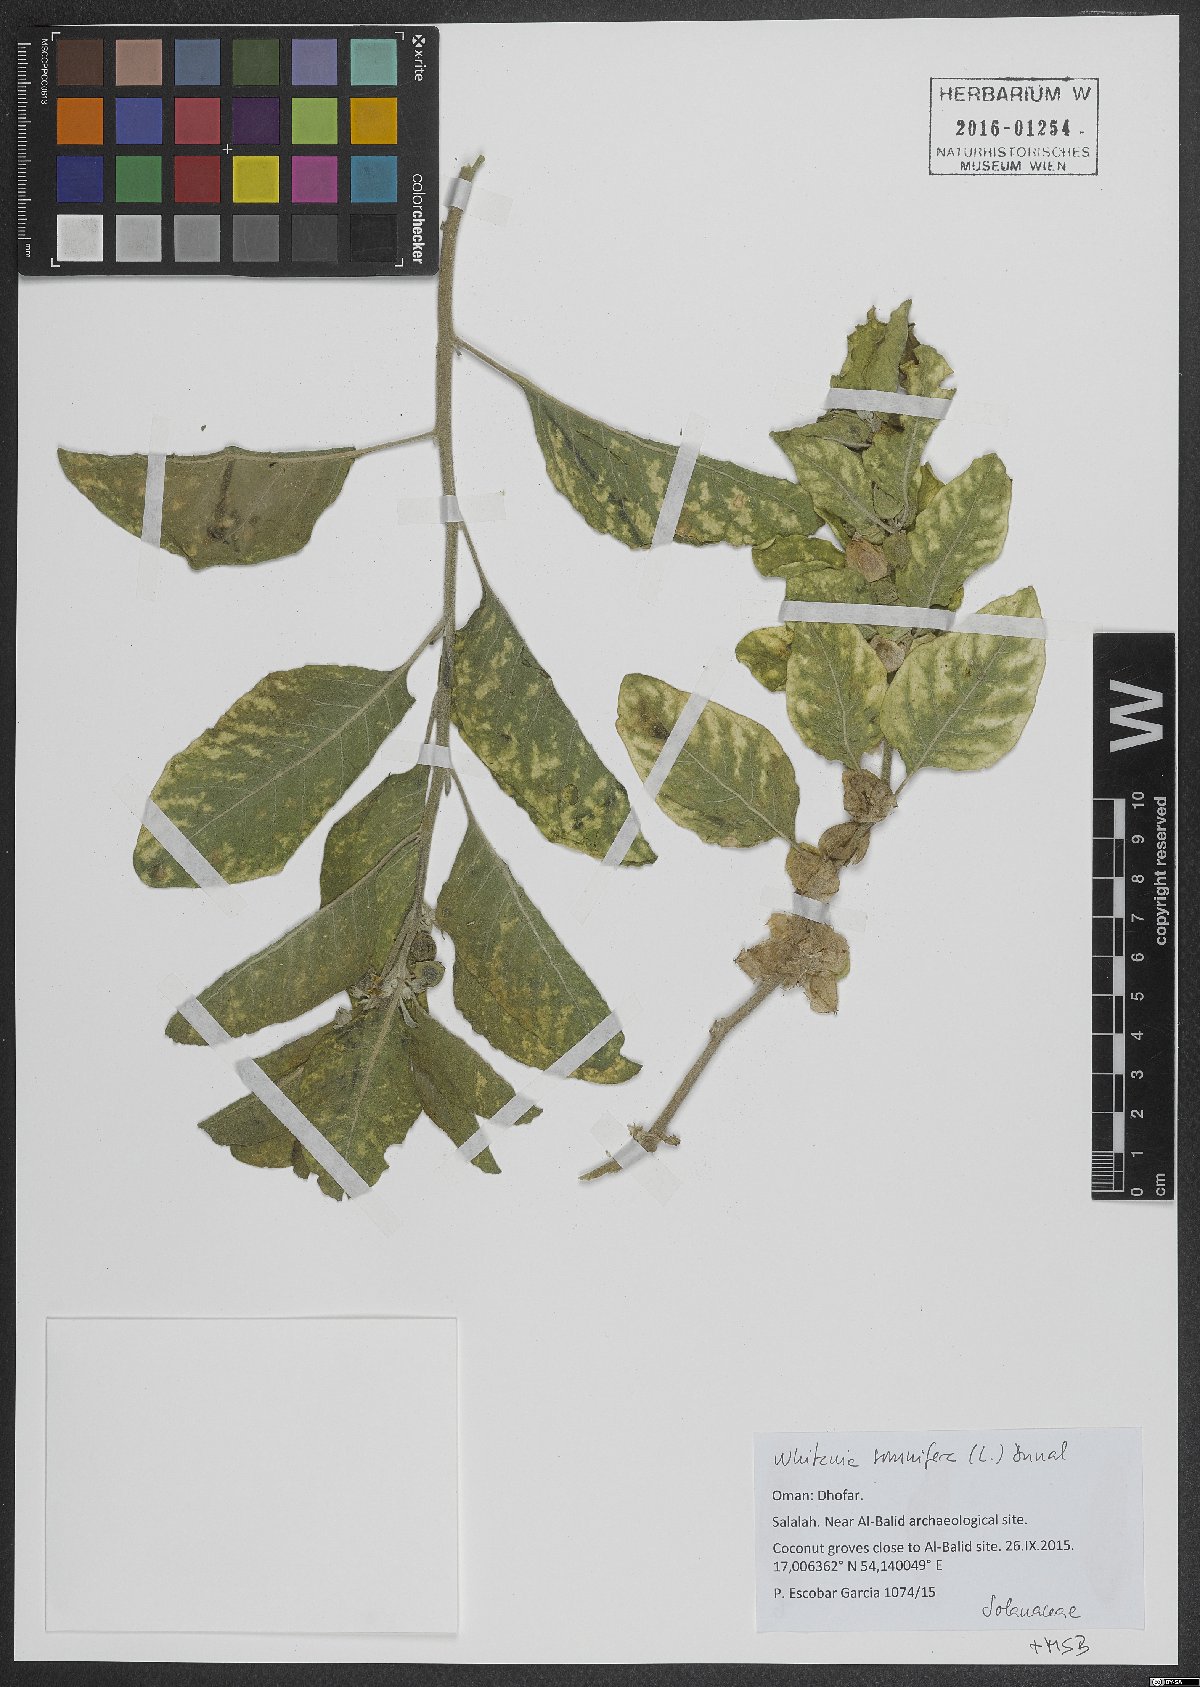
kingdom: Plantae
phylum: Tracheophyta
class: Magnoliopsida
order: Solanales
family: Solanaceae
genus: Withania
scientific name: Withania somnifera
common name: Winter-cherry
